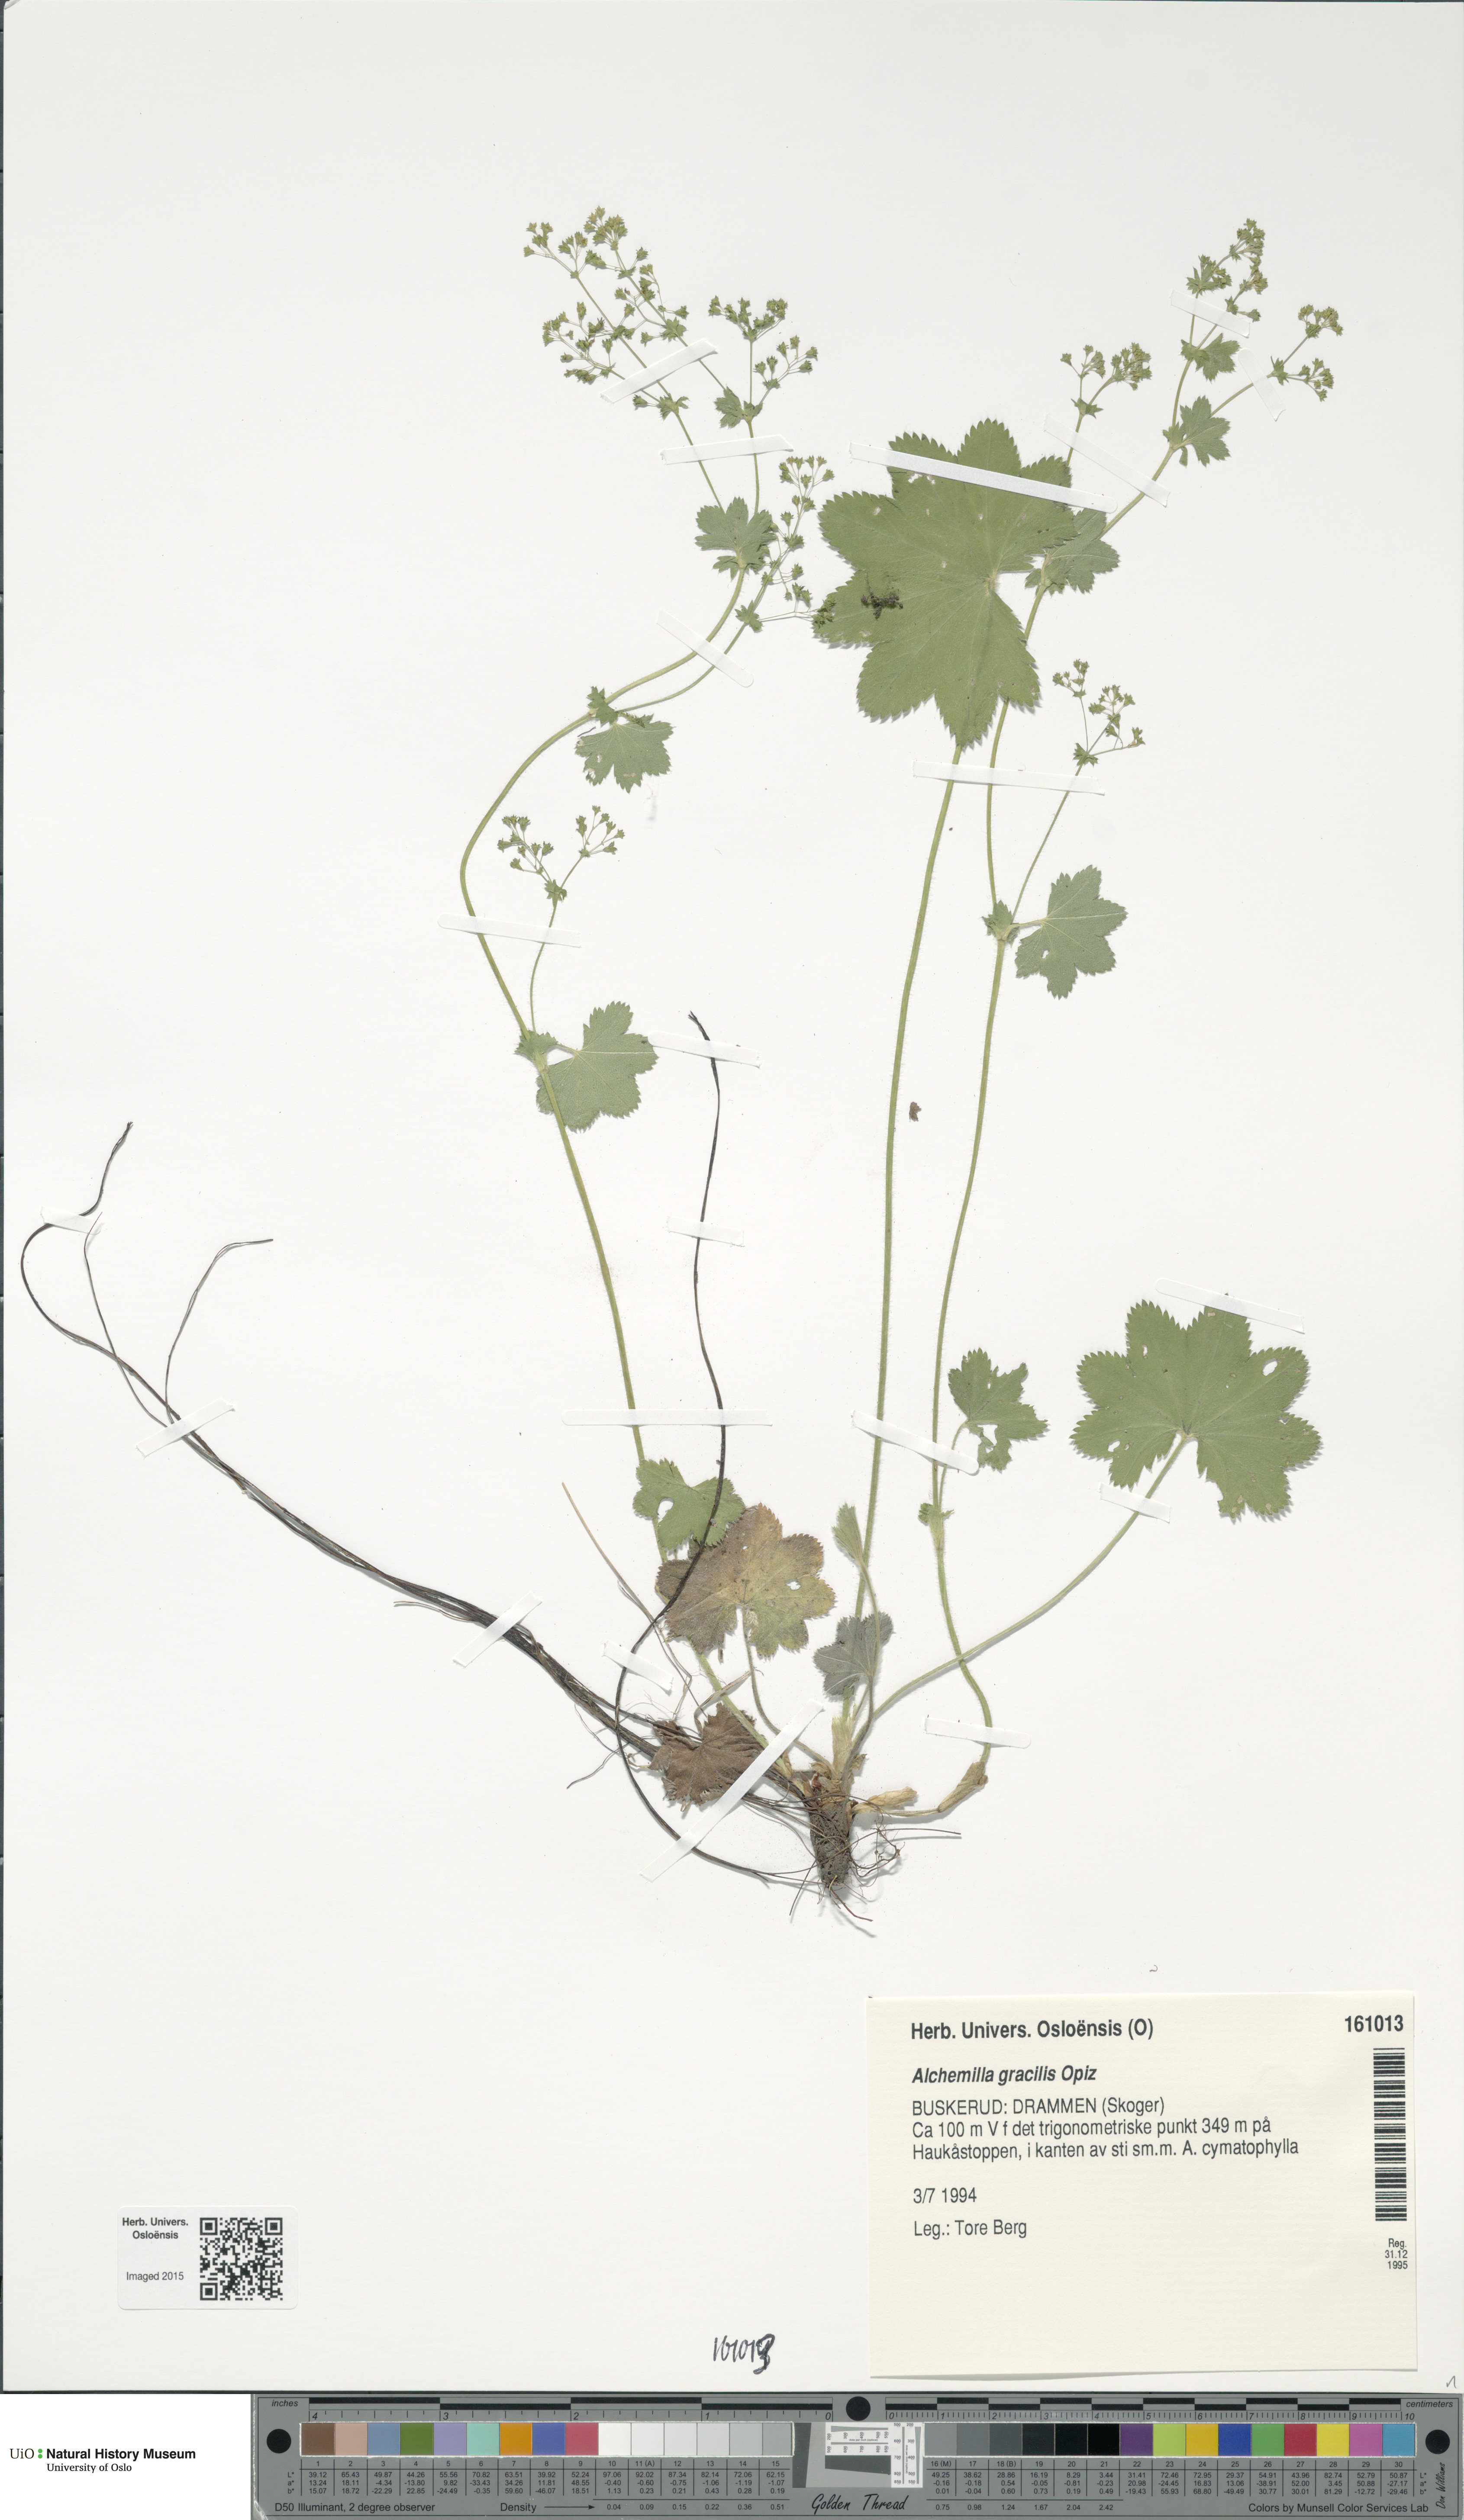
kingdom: Plantae
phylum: Tracheophyta
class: Magnoliopsida
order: Rosales
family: Rosaceae
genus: Alchemilla
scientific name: Alchemilla micans
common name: Gleaming lady's mantle
